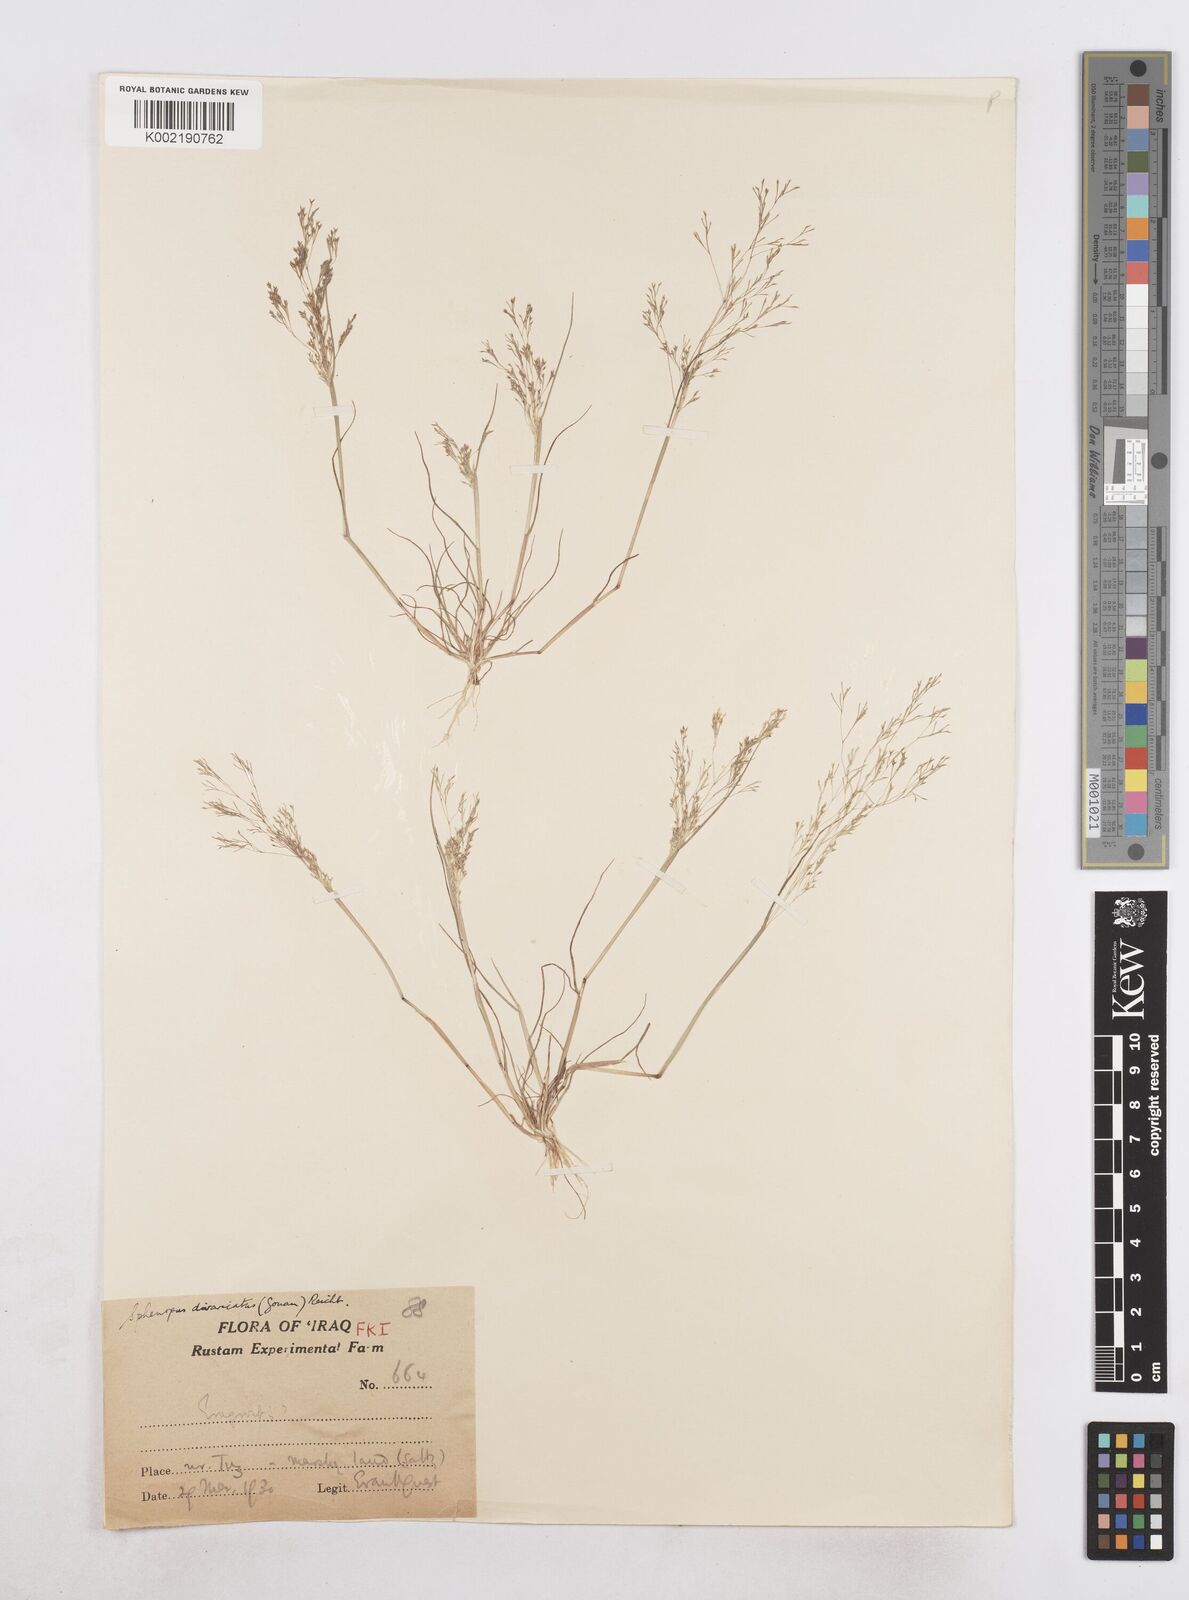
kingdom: Plantae
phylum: Tracheophyta
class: Liliopsida
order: Poales
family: Poaceae
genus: Sphenopus
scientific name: Sphenopus divaricatus
